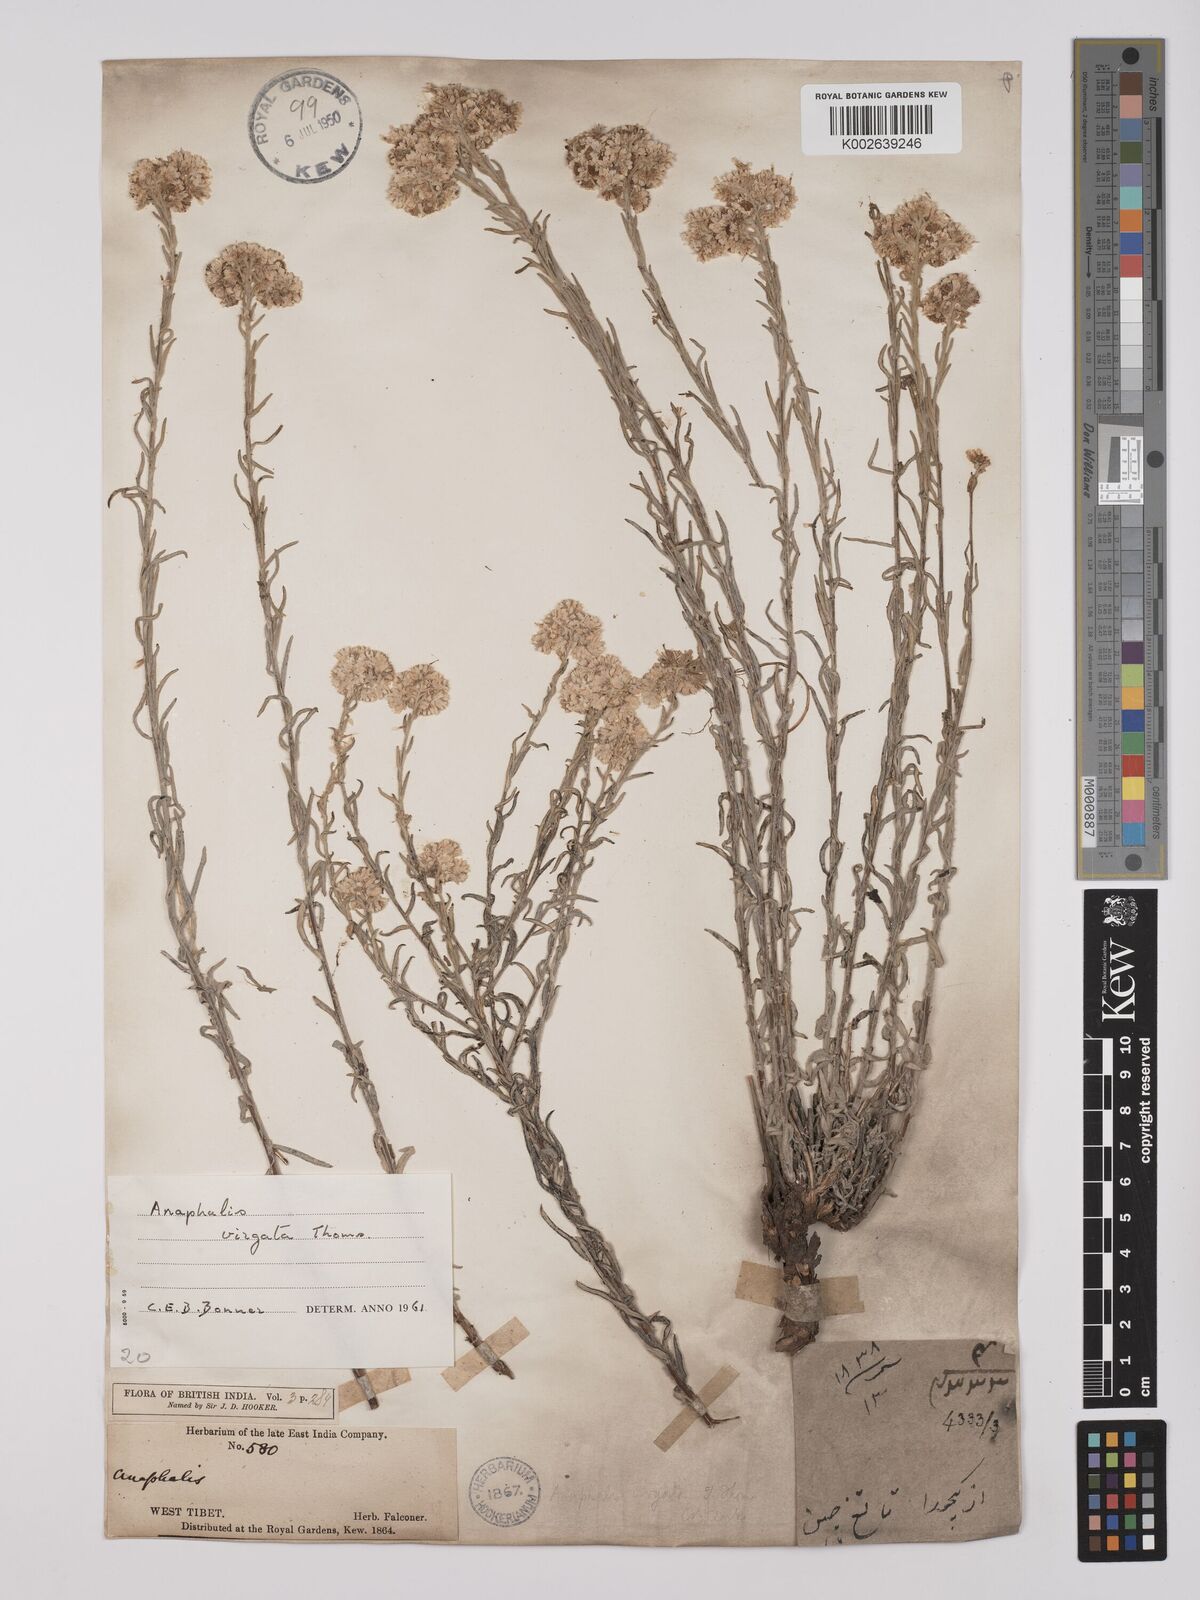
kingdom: Plantae
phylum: Tracheophyta
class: Magnoliopsida
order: Asterales
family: Asteraceae
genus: Anaphalis
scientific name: Anaphalis virgata
